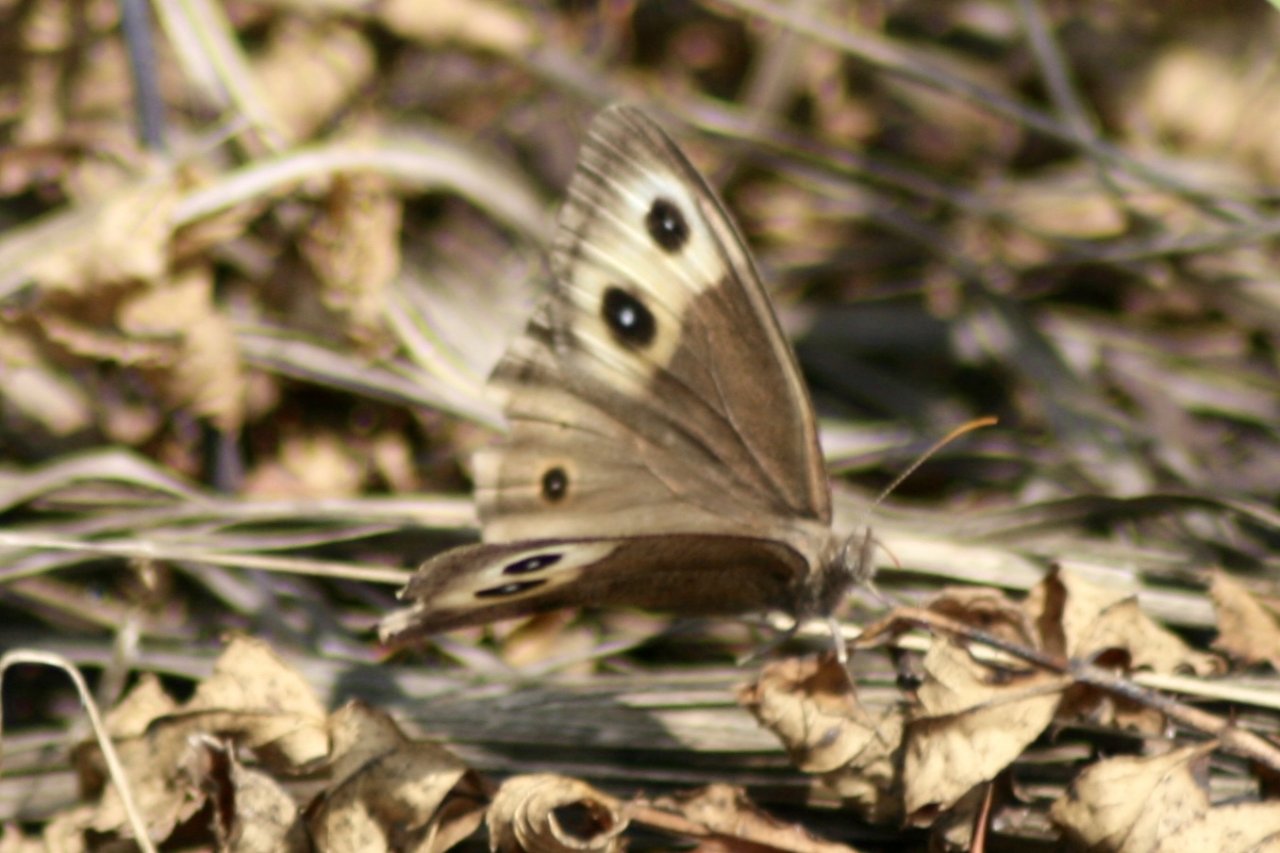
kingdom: Animalia
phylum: Arthropoda
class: Insecta
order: Lepidoptera
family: Nymphalidae
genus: Cercyonis
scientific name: Cercyonis pegala
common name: Common Wood-Nymph
